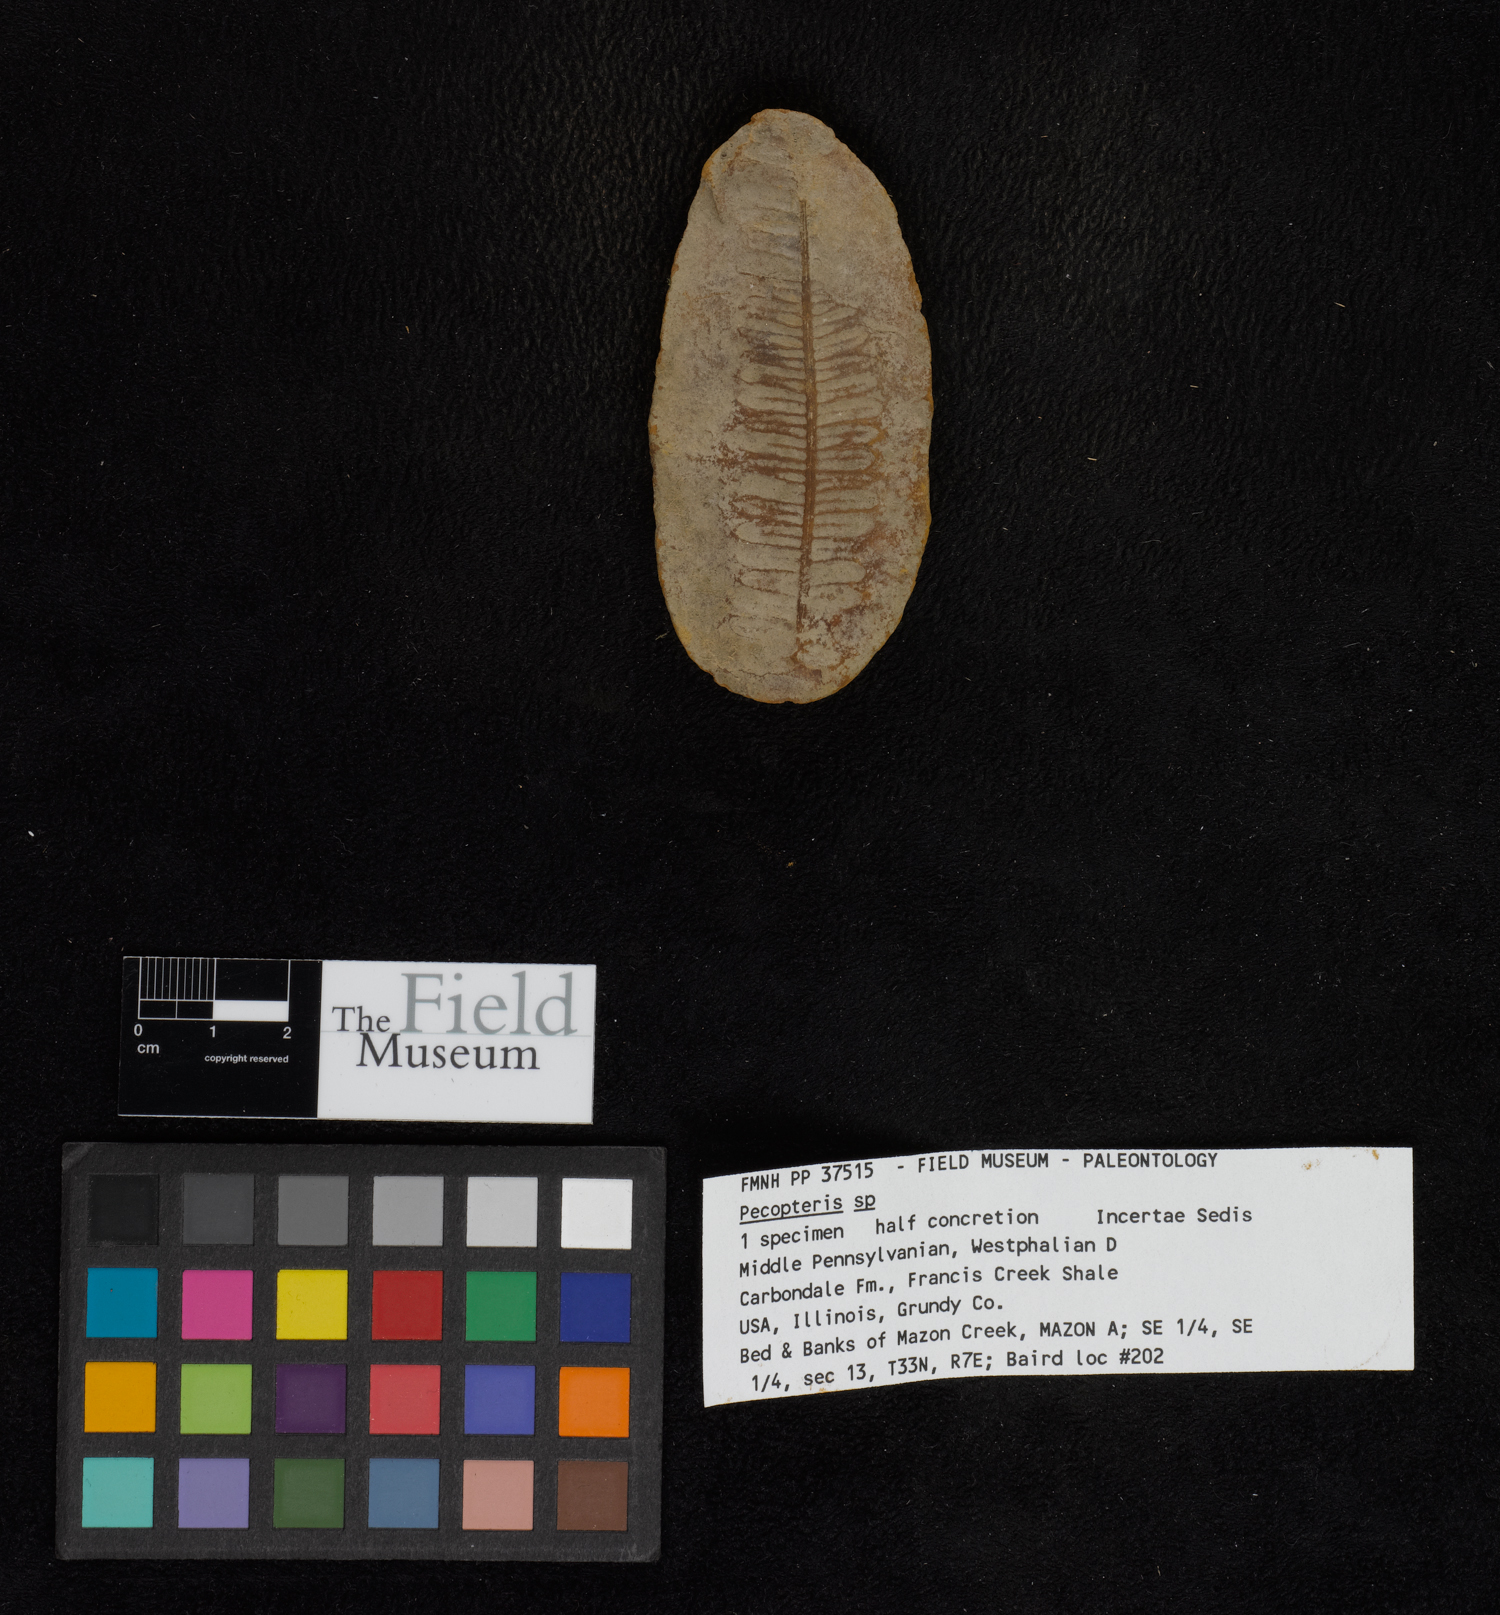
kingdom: Plantae
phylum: Tracheophyta
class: Polypodiopsida
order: Marattiales
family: Asterothecaceae
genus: Pecopteris
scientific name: Pecopteris
